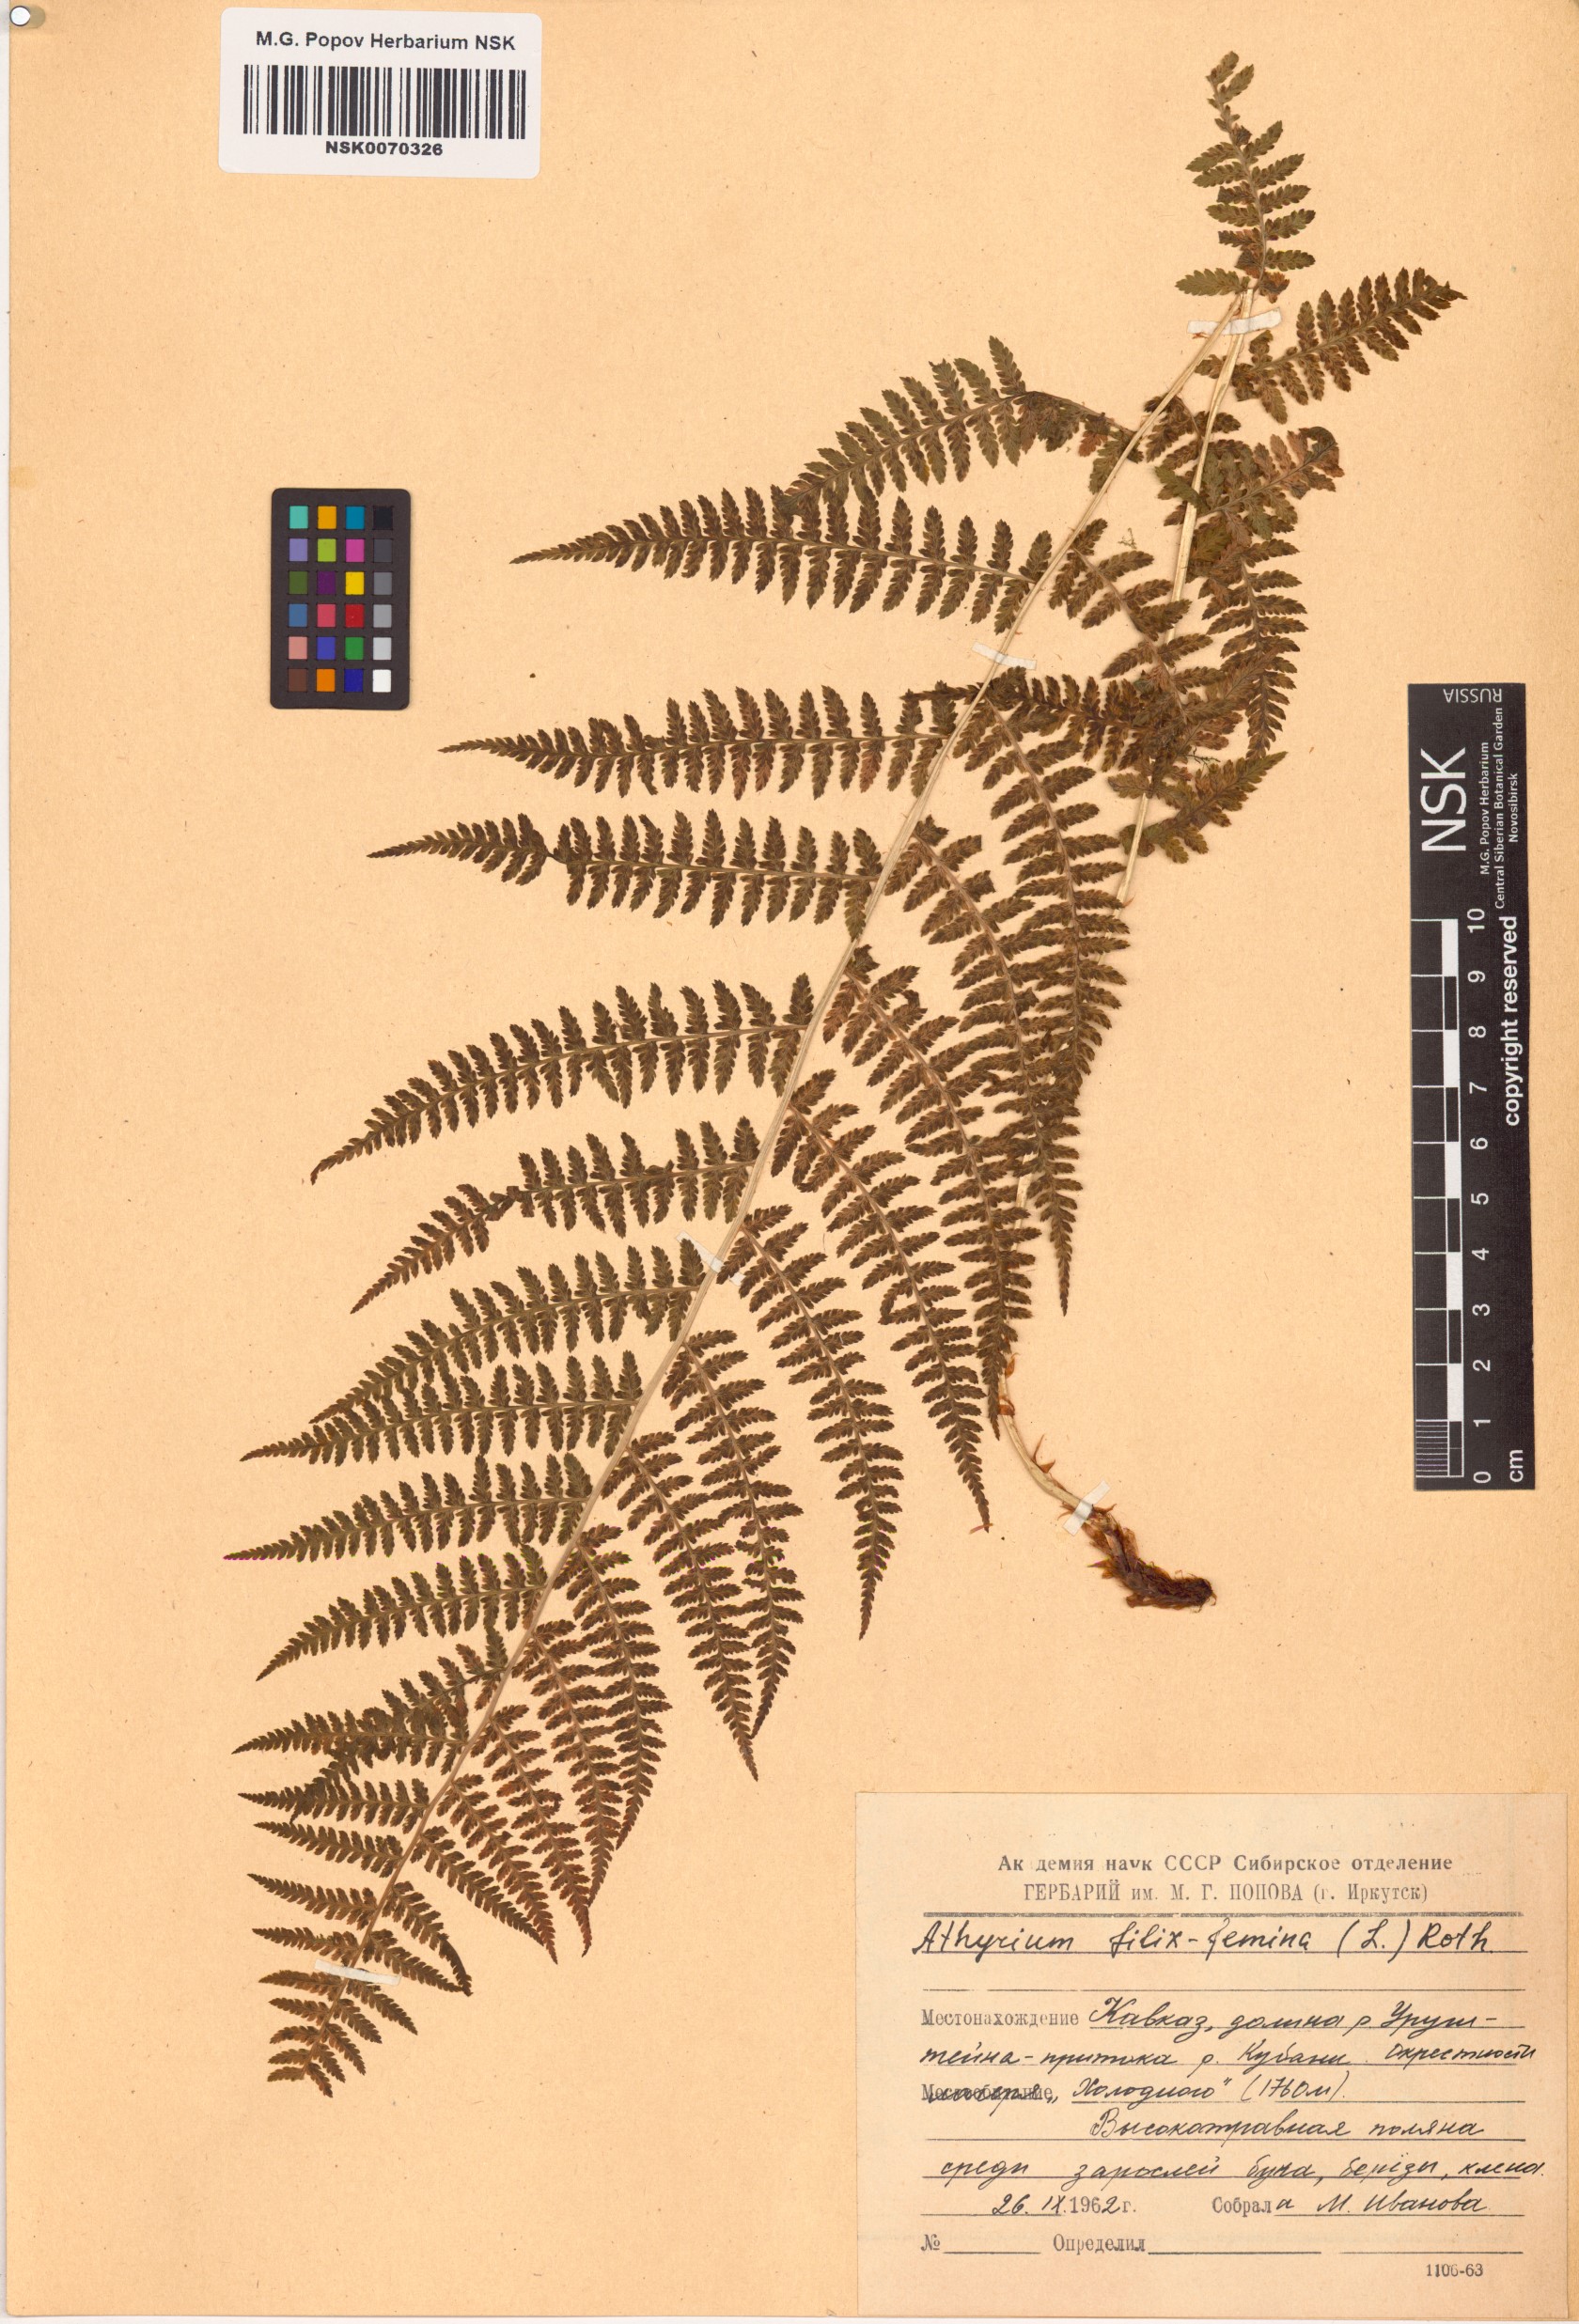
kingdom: Plantae
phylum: Tracheophyta
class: Polypodiopsida
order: Polypodiales
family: Athyriaceae
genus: Athyrium
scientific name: Athyrium filix-femina
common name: Lady fern
